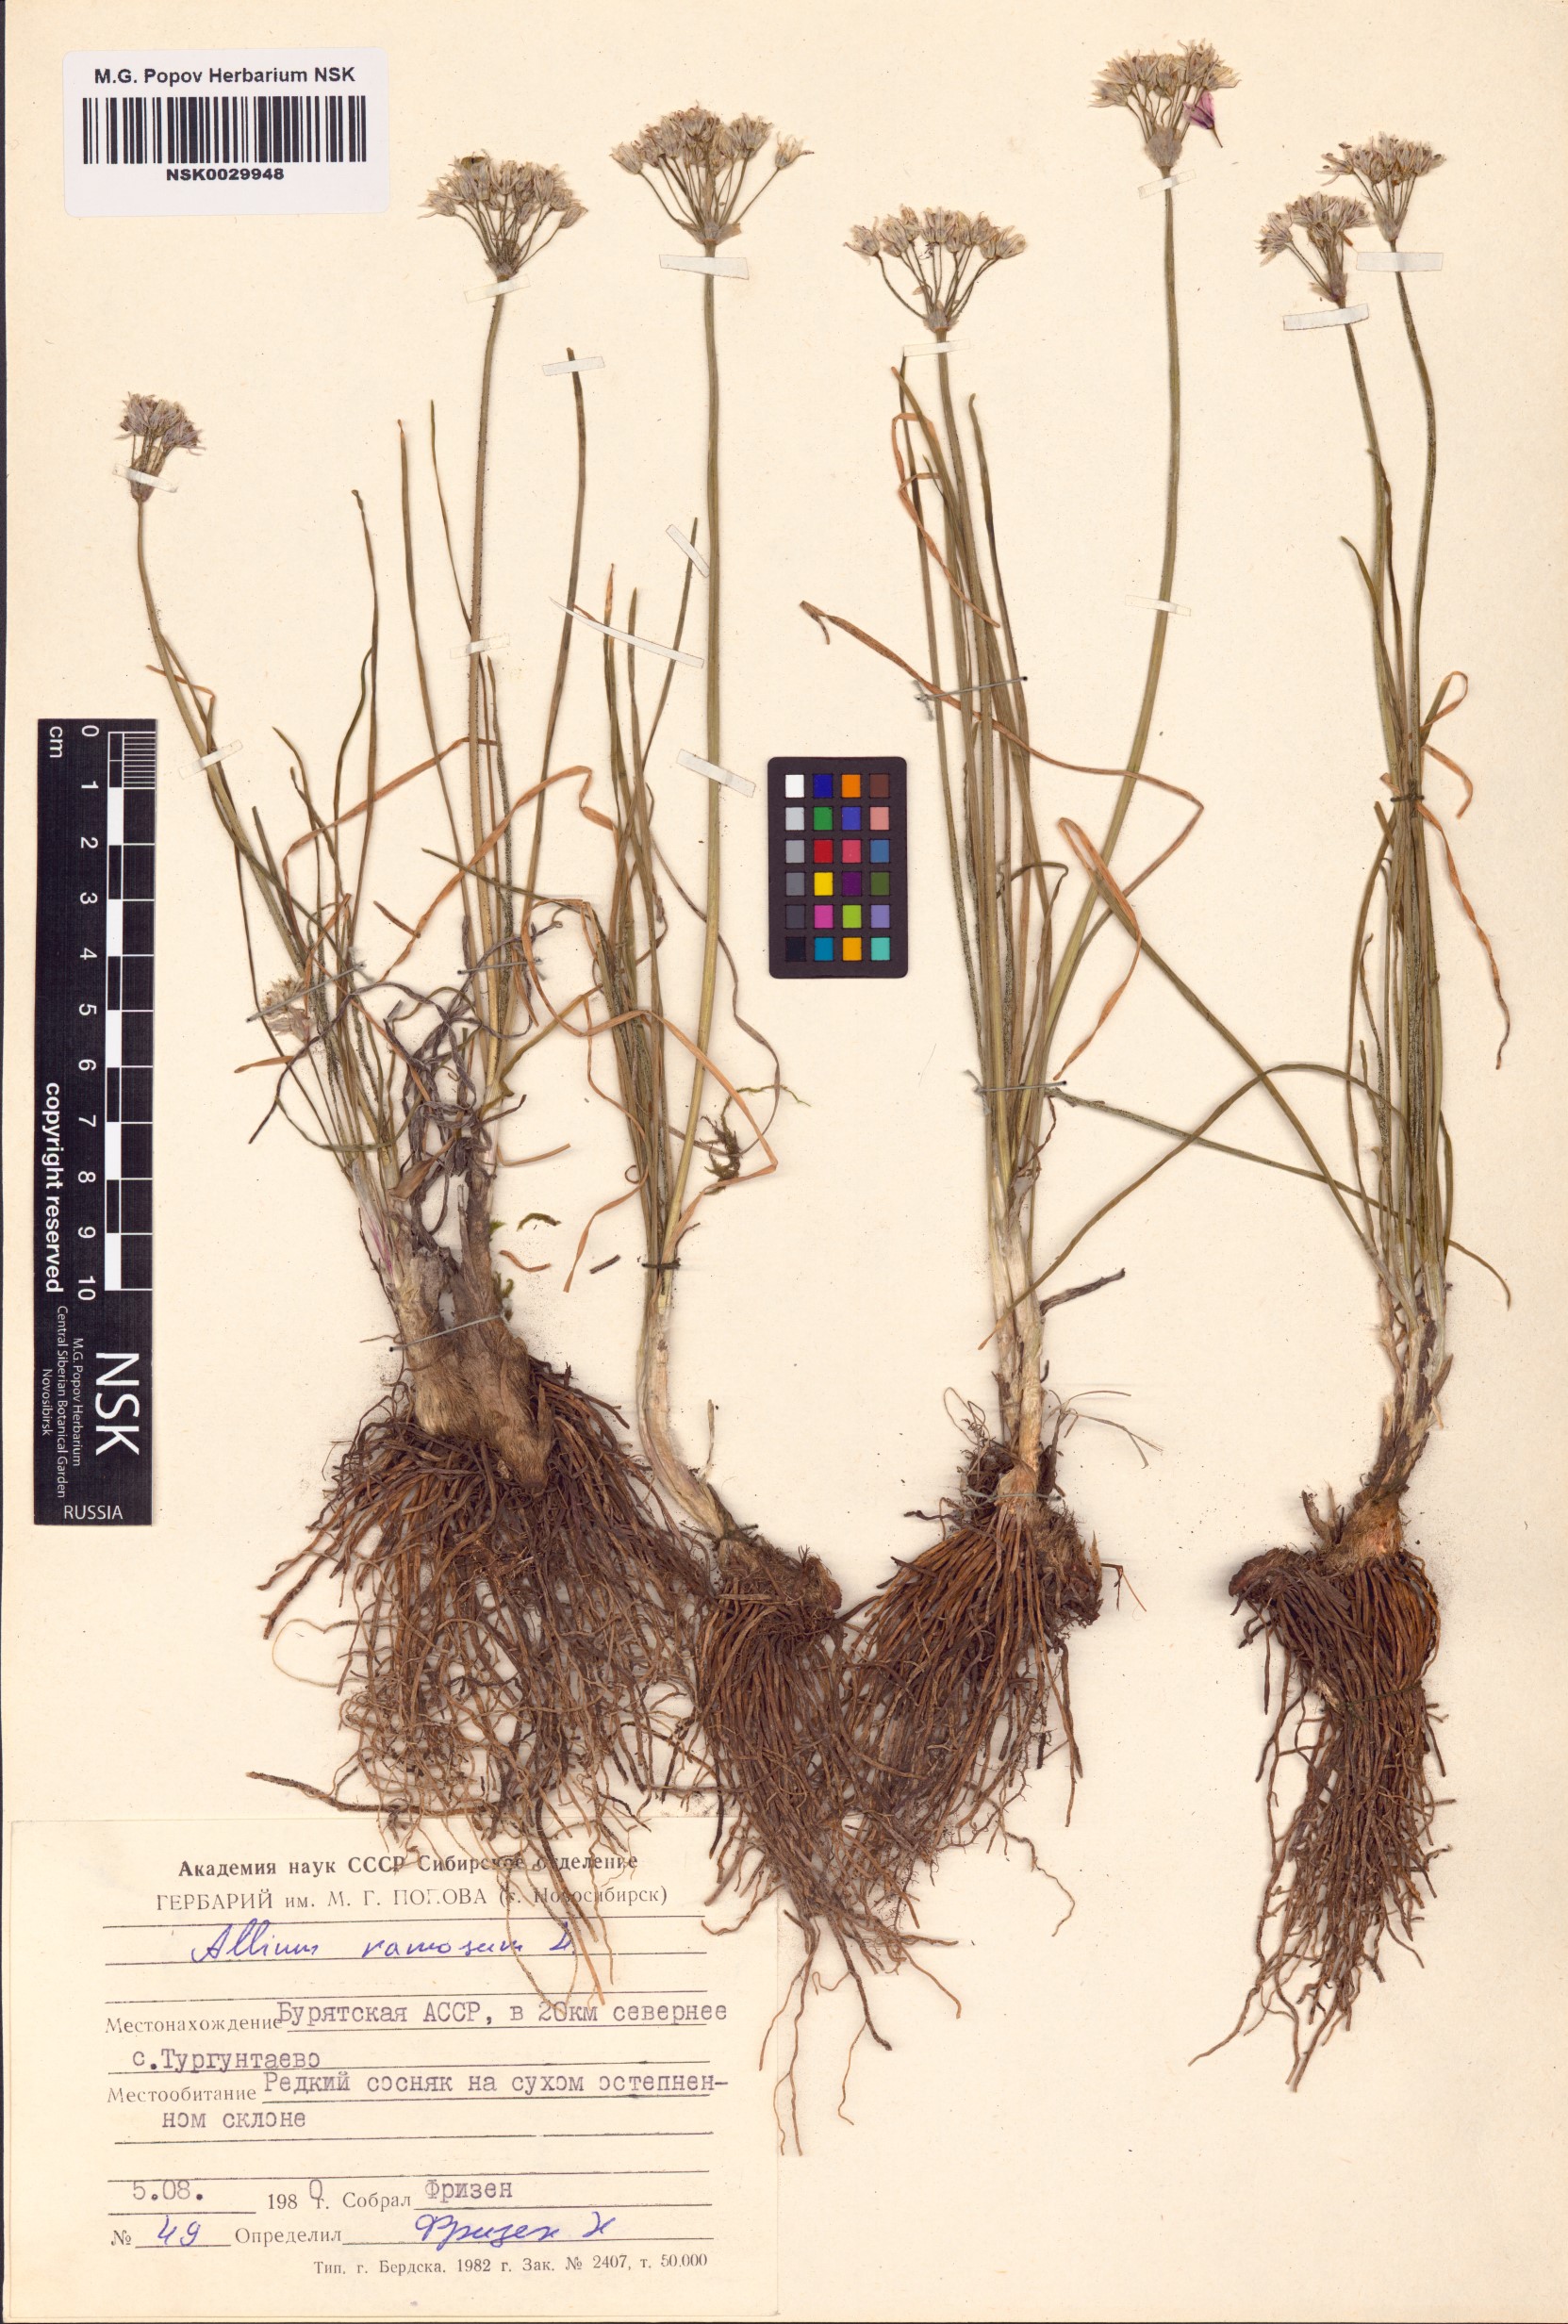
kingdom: Plantae
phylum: Tracheophyta
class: Liliopsida
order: Asparagales
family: Amaryllidaceae
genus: Allium
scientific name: Allium ramosum
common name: Fragrant garlic
